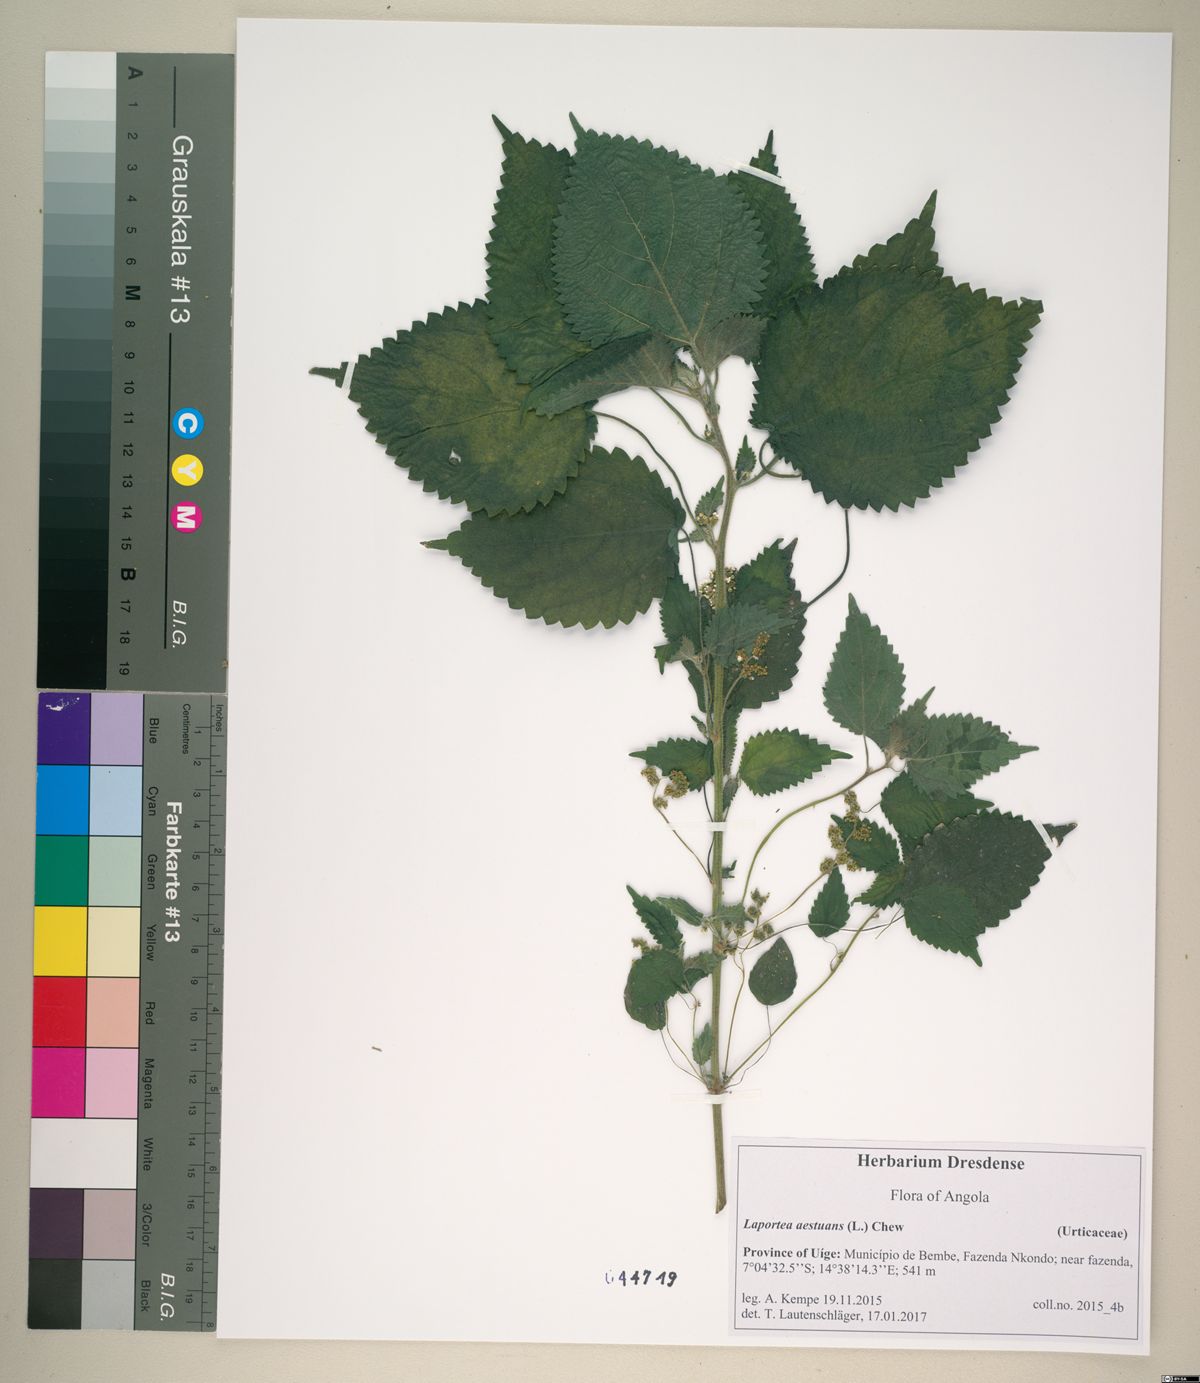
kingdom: Plantae
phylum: Tracheophyta
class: Magnoliopsida
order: Rosales
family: Urticaceae
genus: Laportea
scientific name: Laportea aestuans
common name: West indian woodnettle
